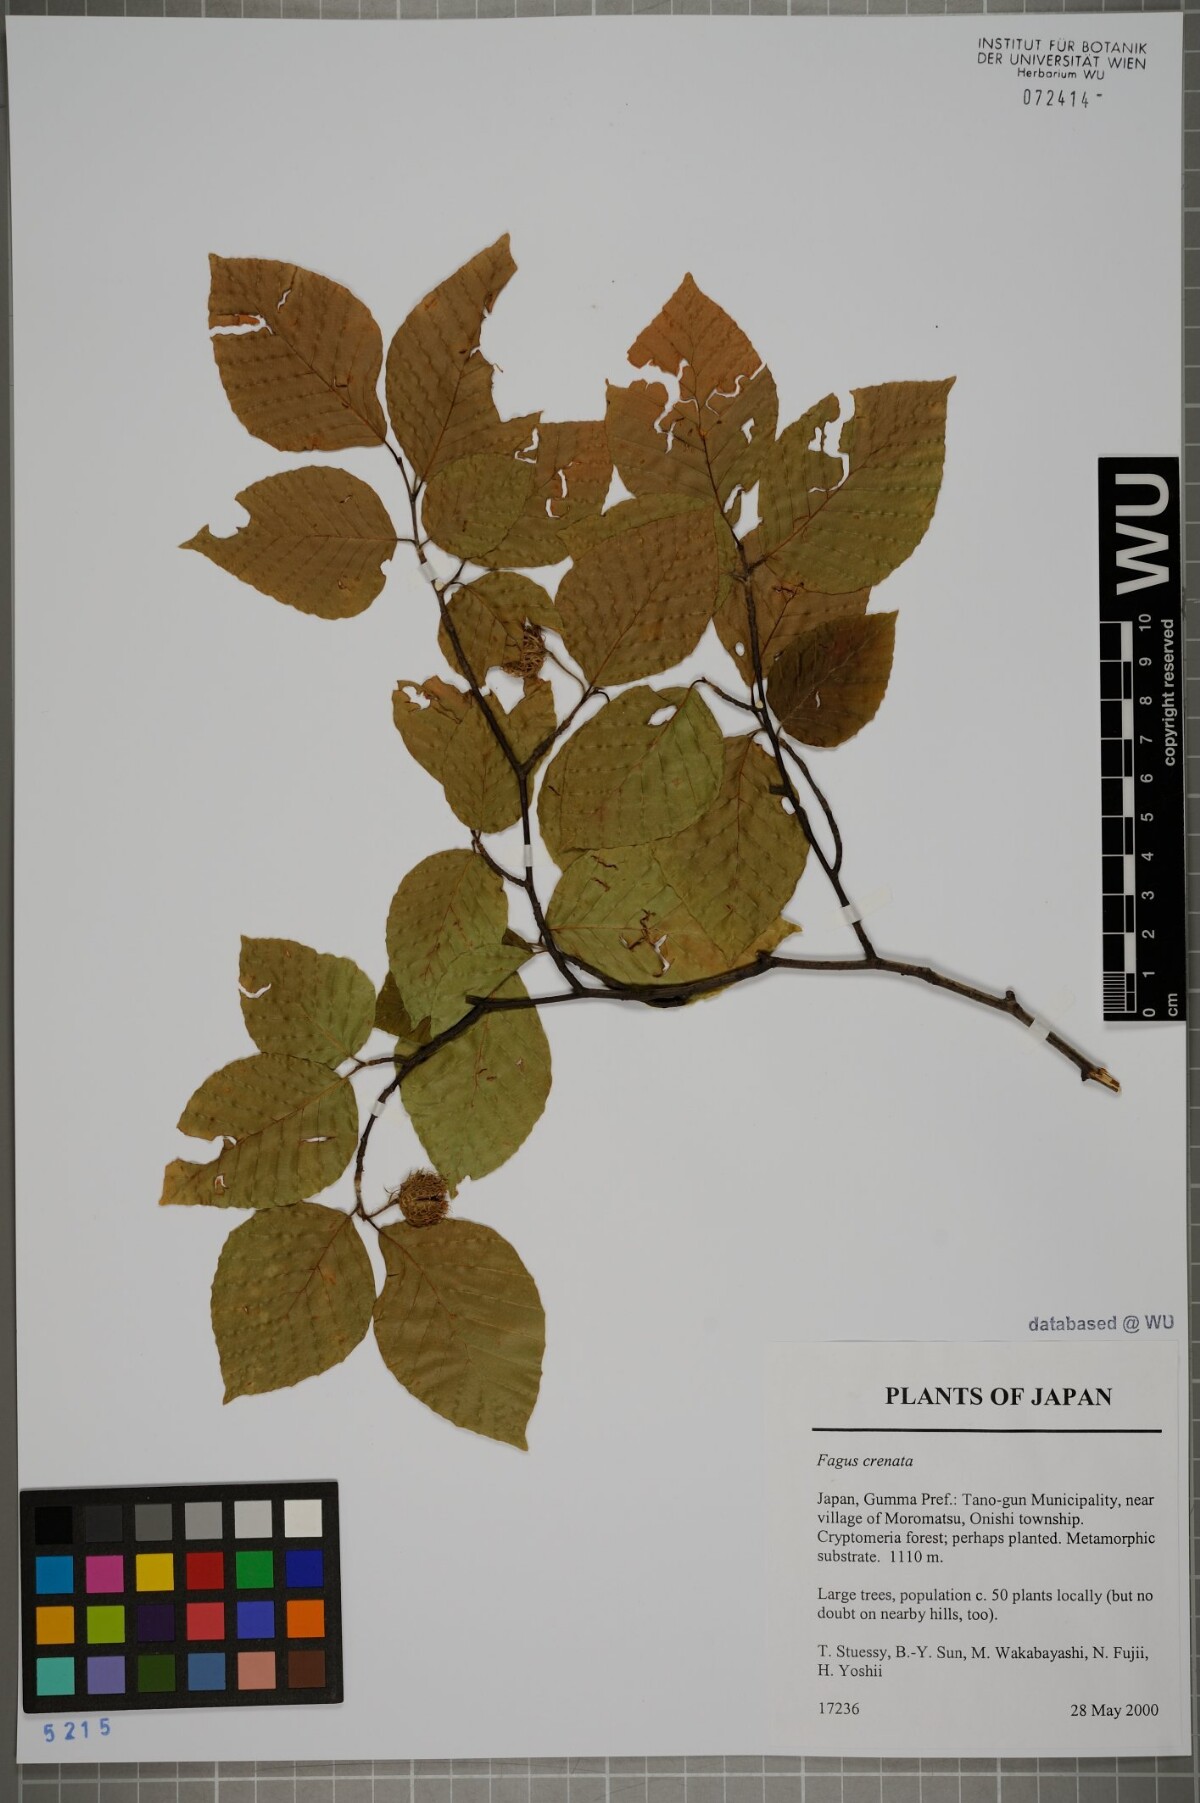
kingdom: Plantae
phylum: Tracheophyta
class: Magnoliopsida
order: Fagales
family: Fagaceae
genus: Fagus
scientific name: Fagus crenata
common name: Japanese beech
